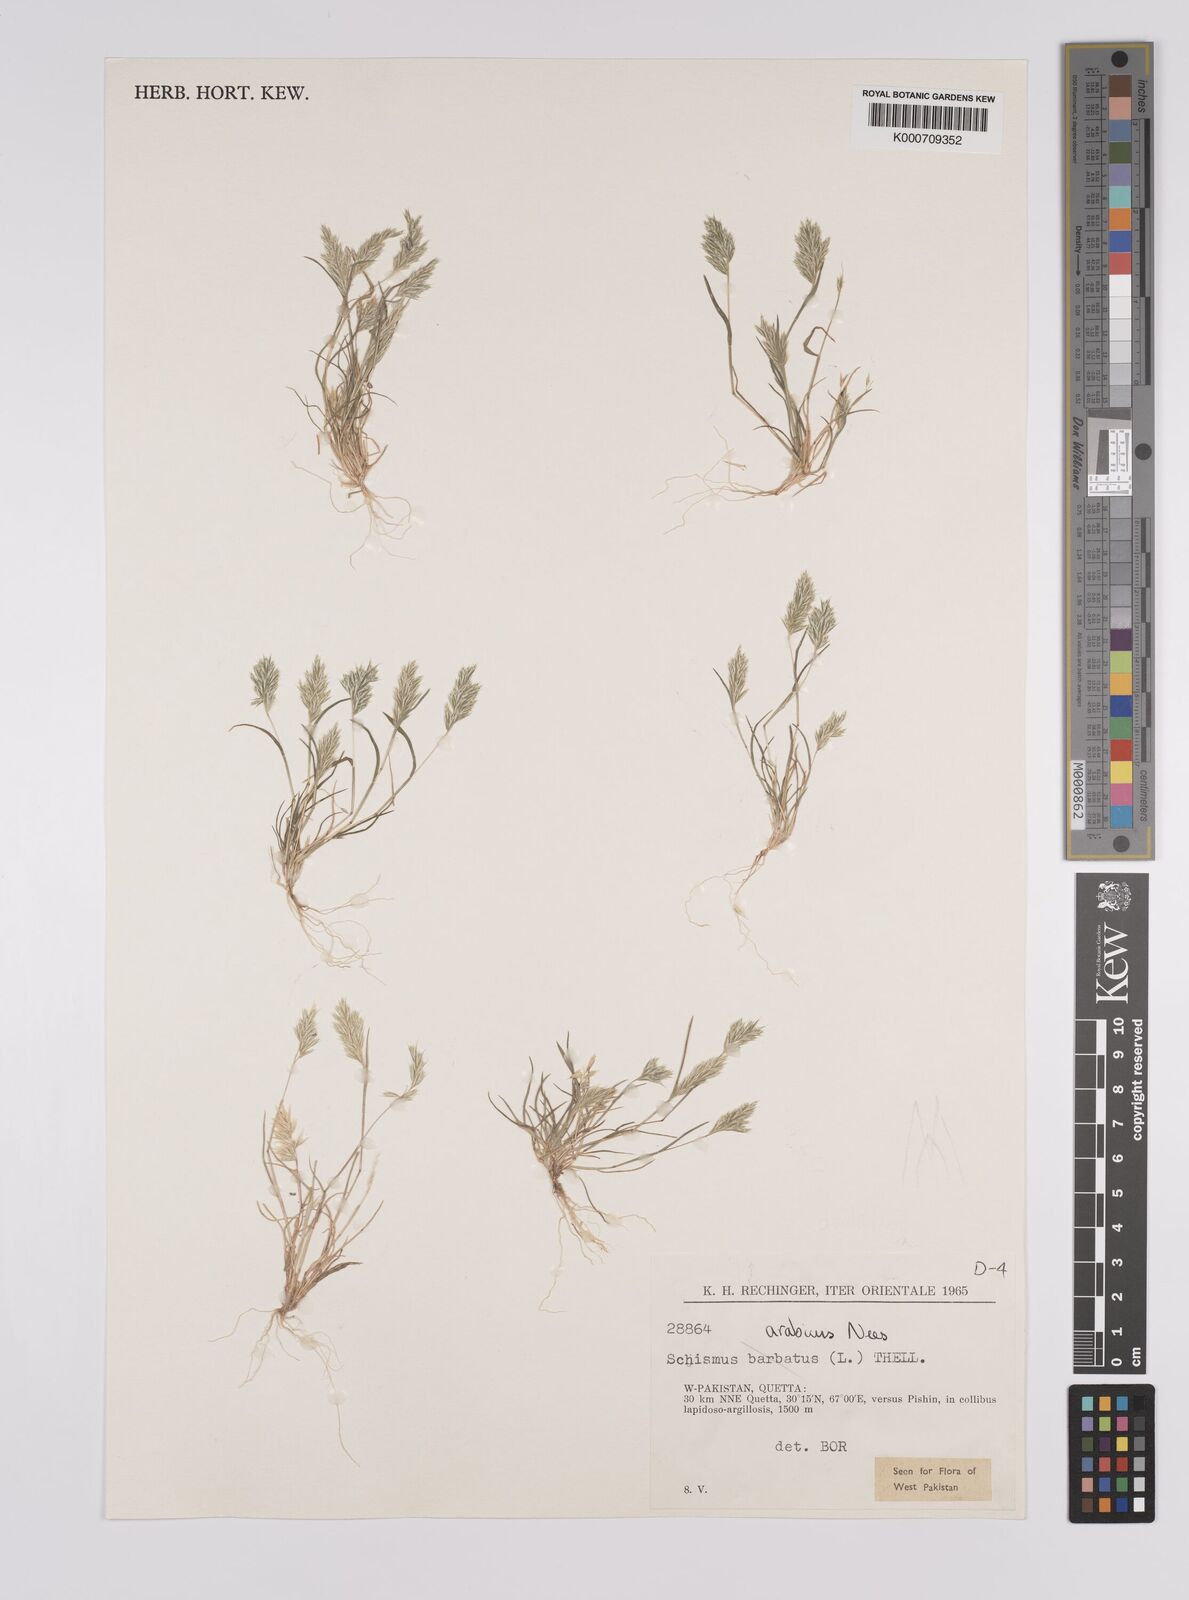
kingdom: Plantae
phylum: Tracheophyta
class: Liliopsida
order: Poales
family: Poaceae
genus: Schismus
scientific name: Schismus arabicus
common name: Arabian schismus
